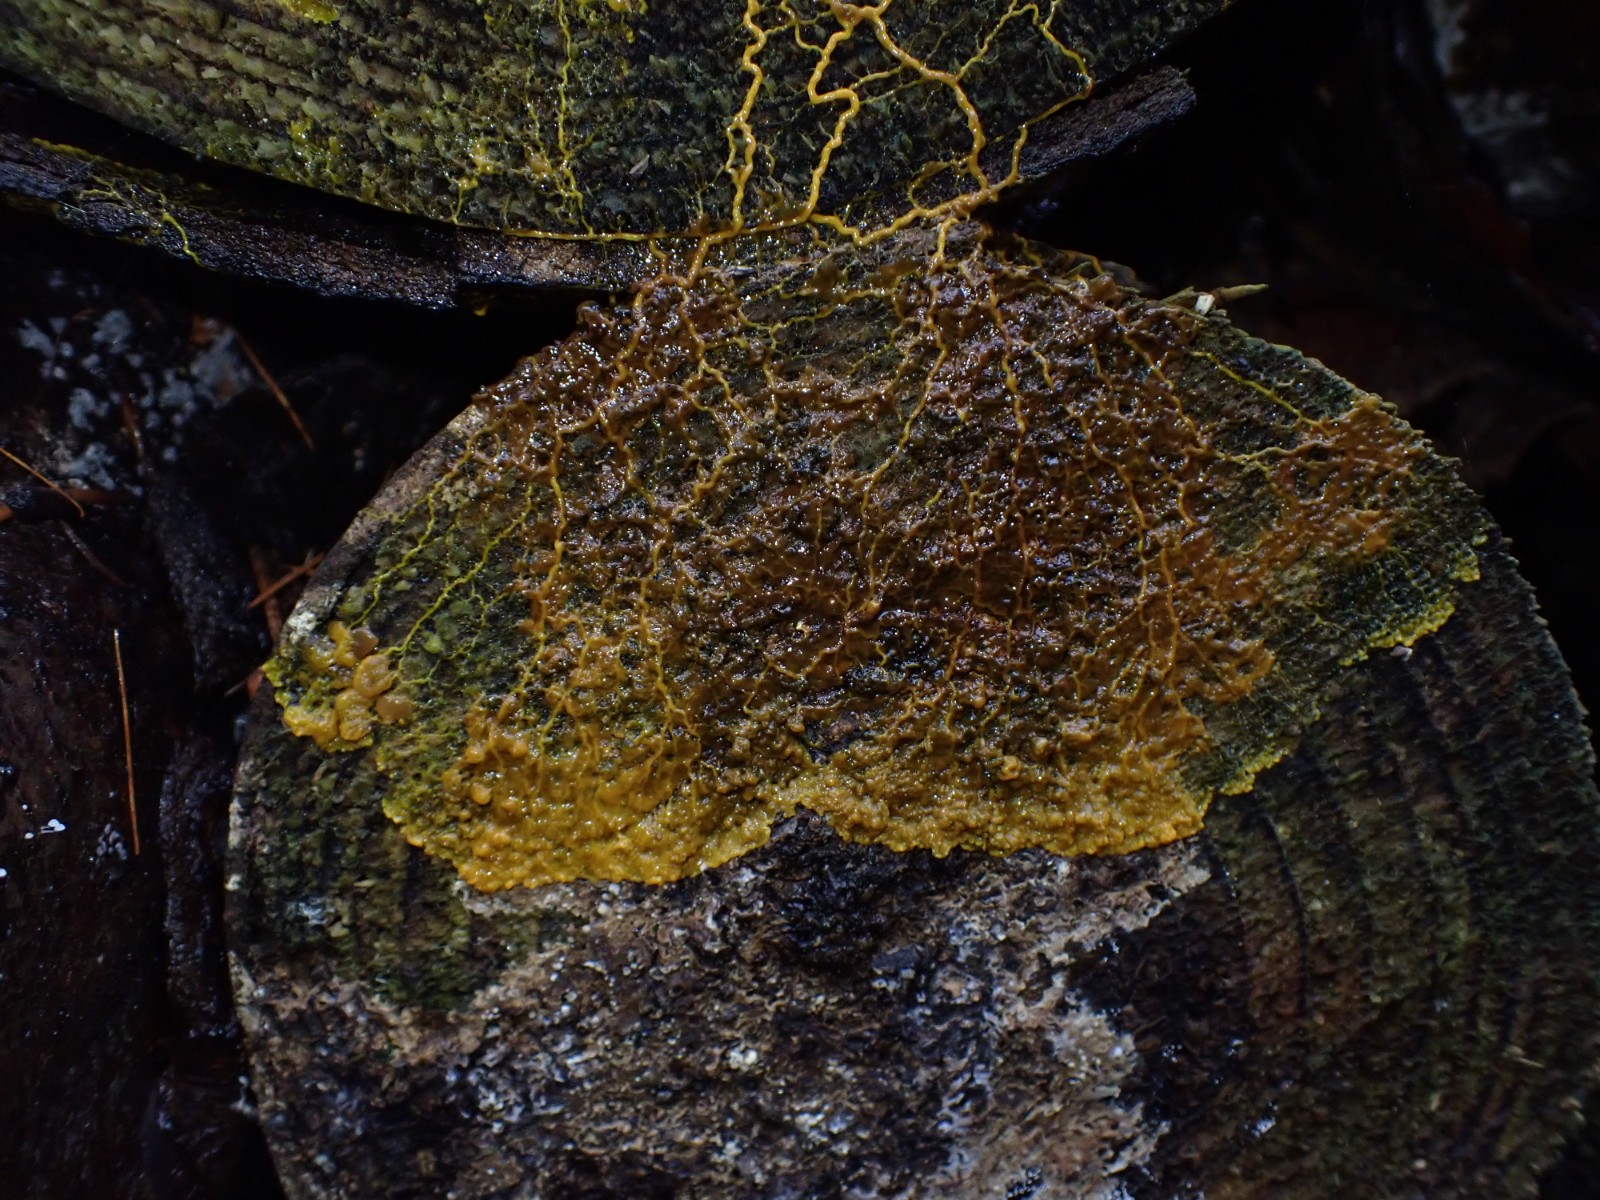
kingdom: Protozoa
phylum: Mycetozoa
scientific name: Mycetozoa
